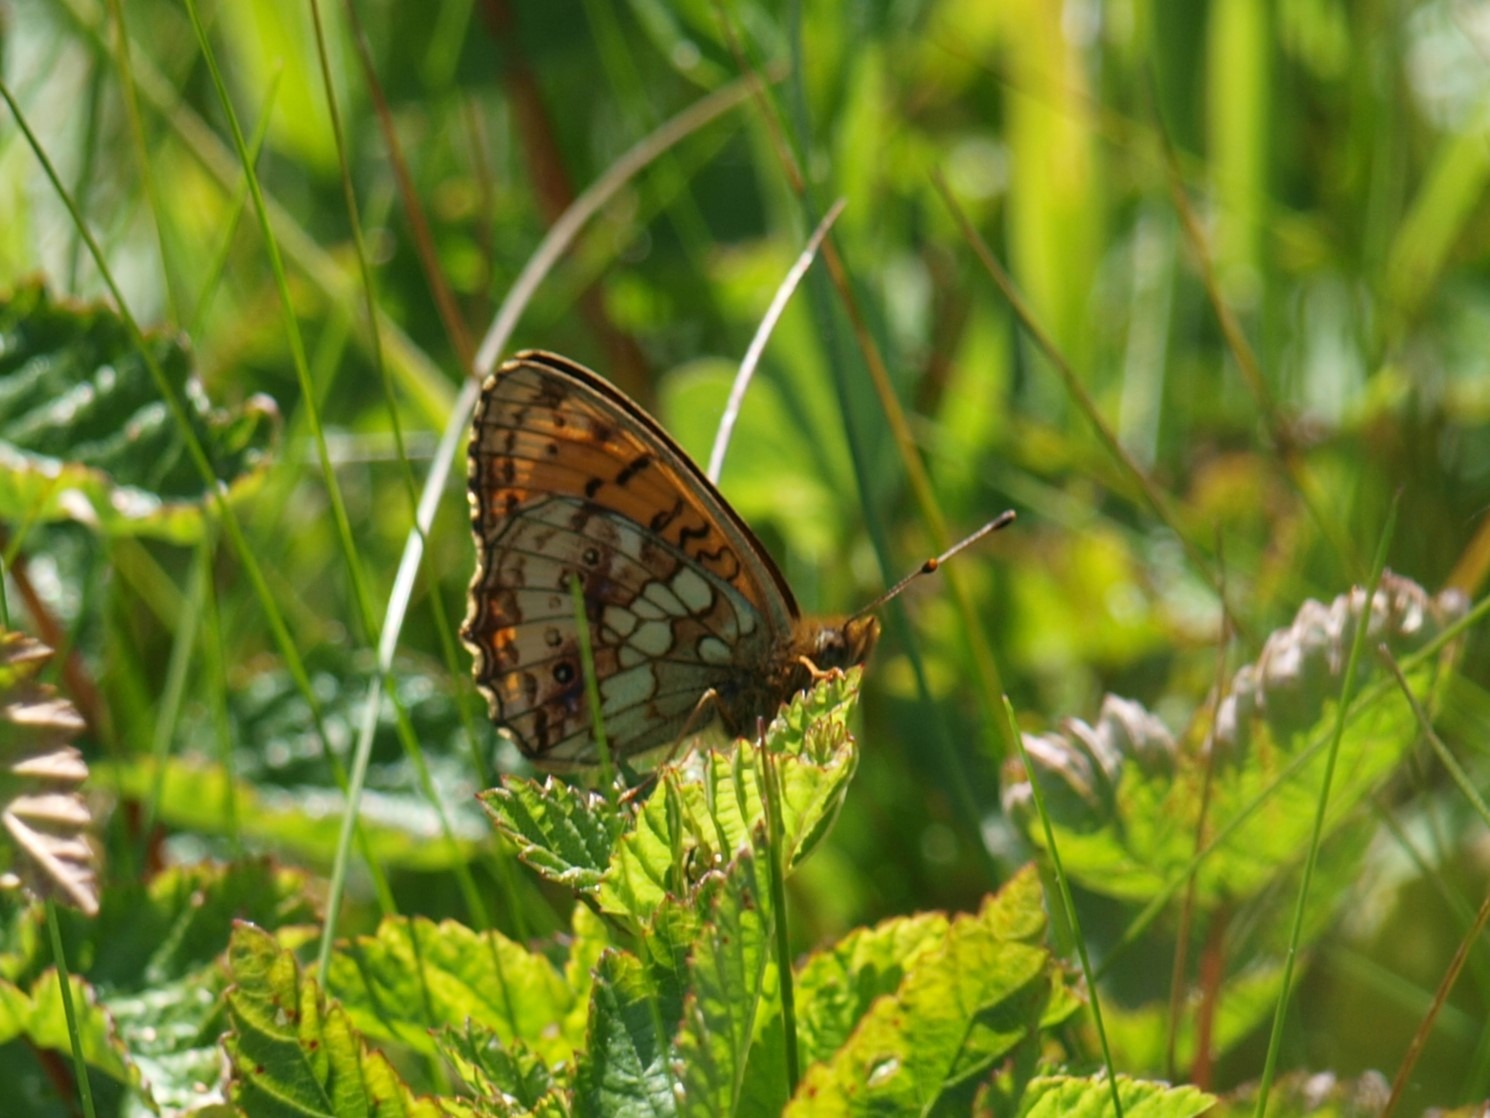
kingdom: Animalia
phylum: Arthropoda
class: Insecta
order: Lepidoptera
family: Nymphalidae
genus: Brenthis
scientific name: Brenthis ino
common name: Engperlemorsommerfugl
